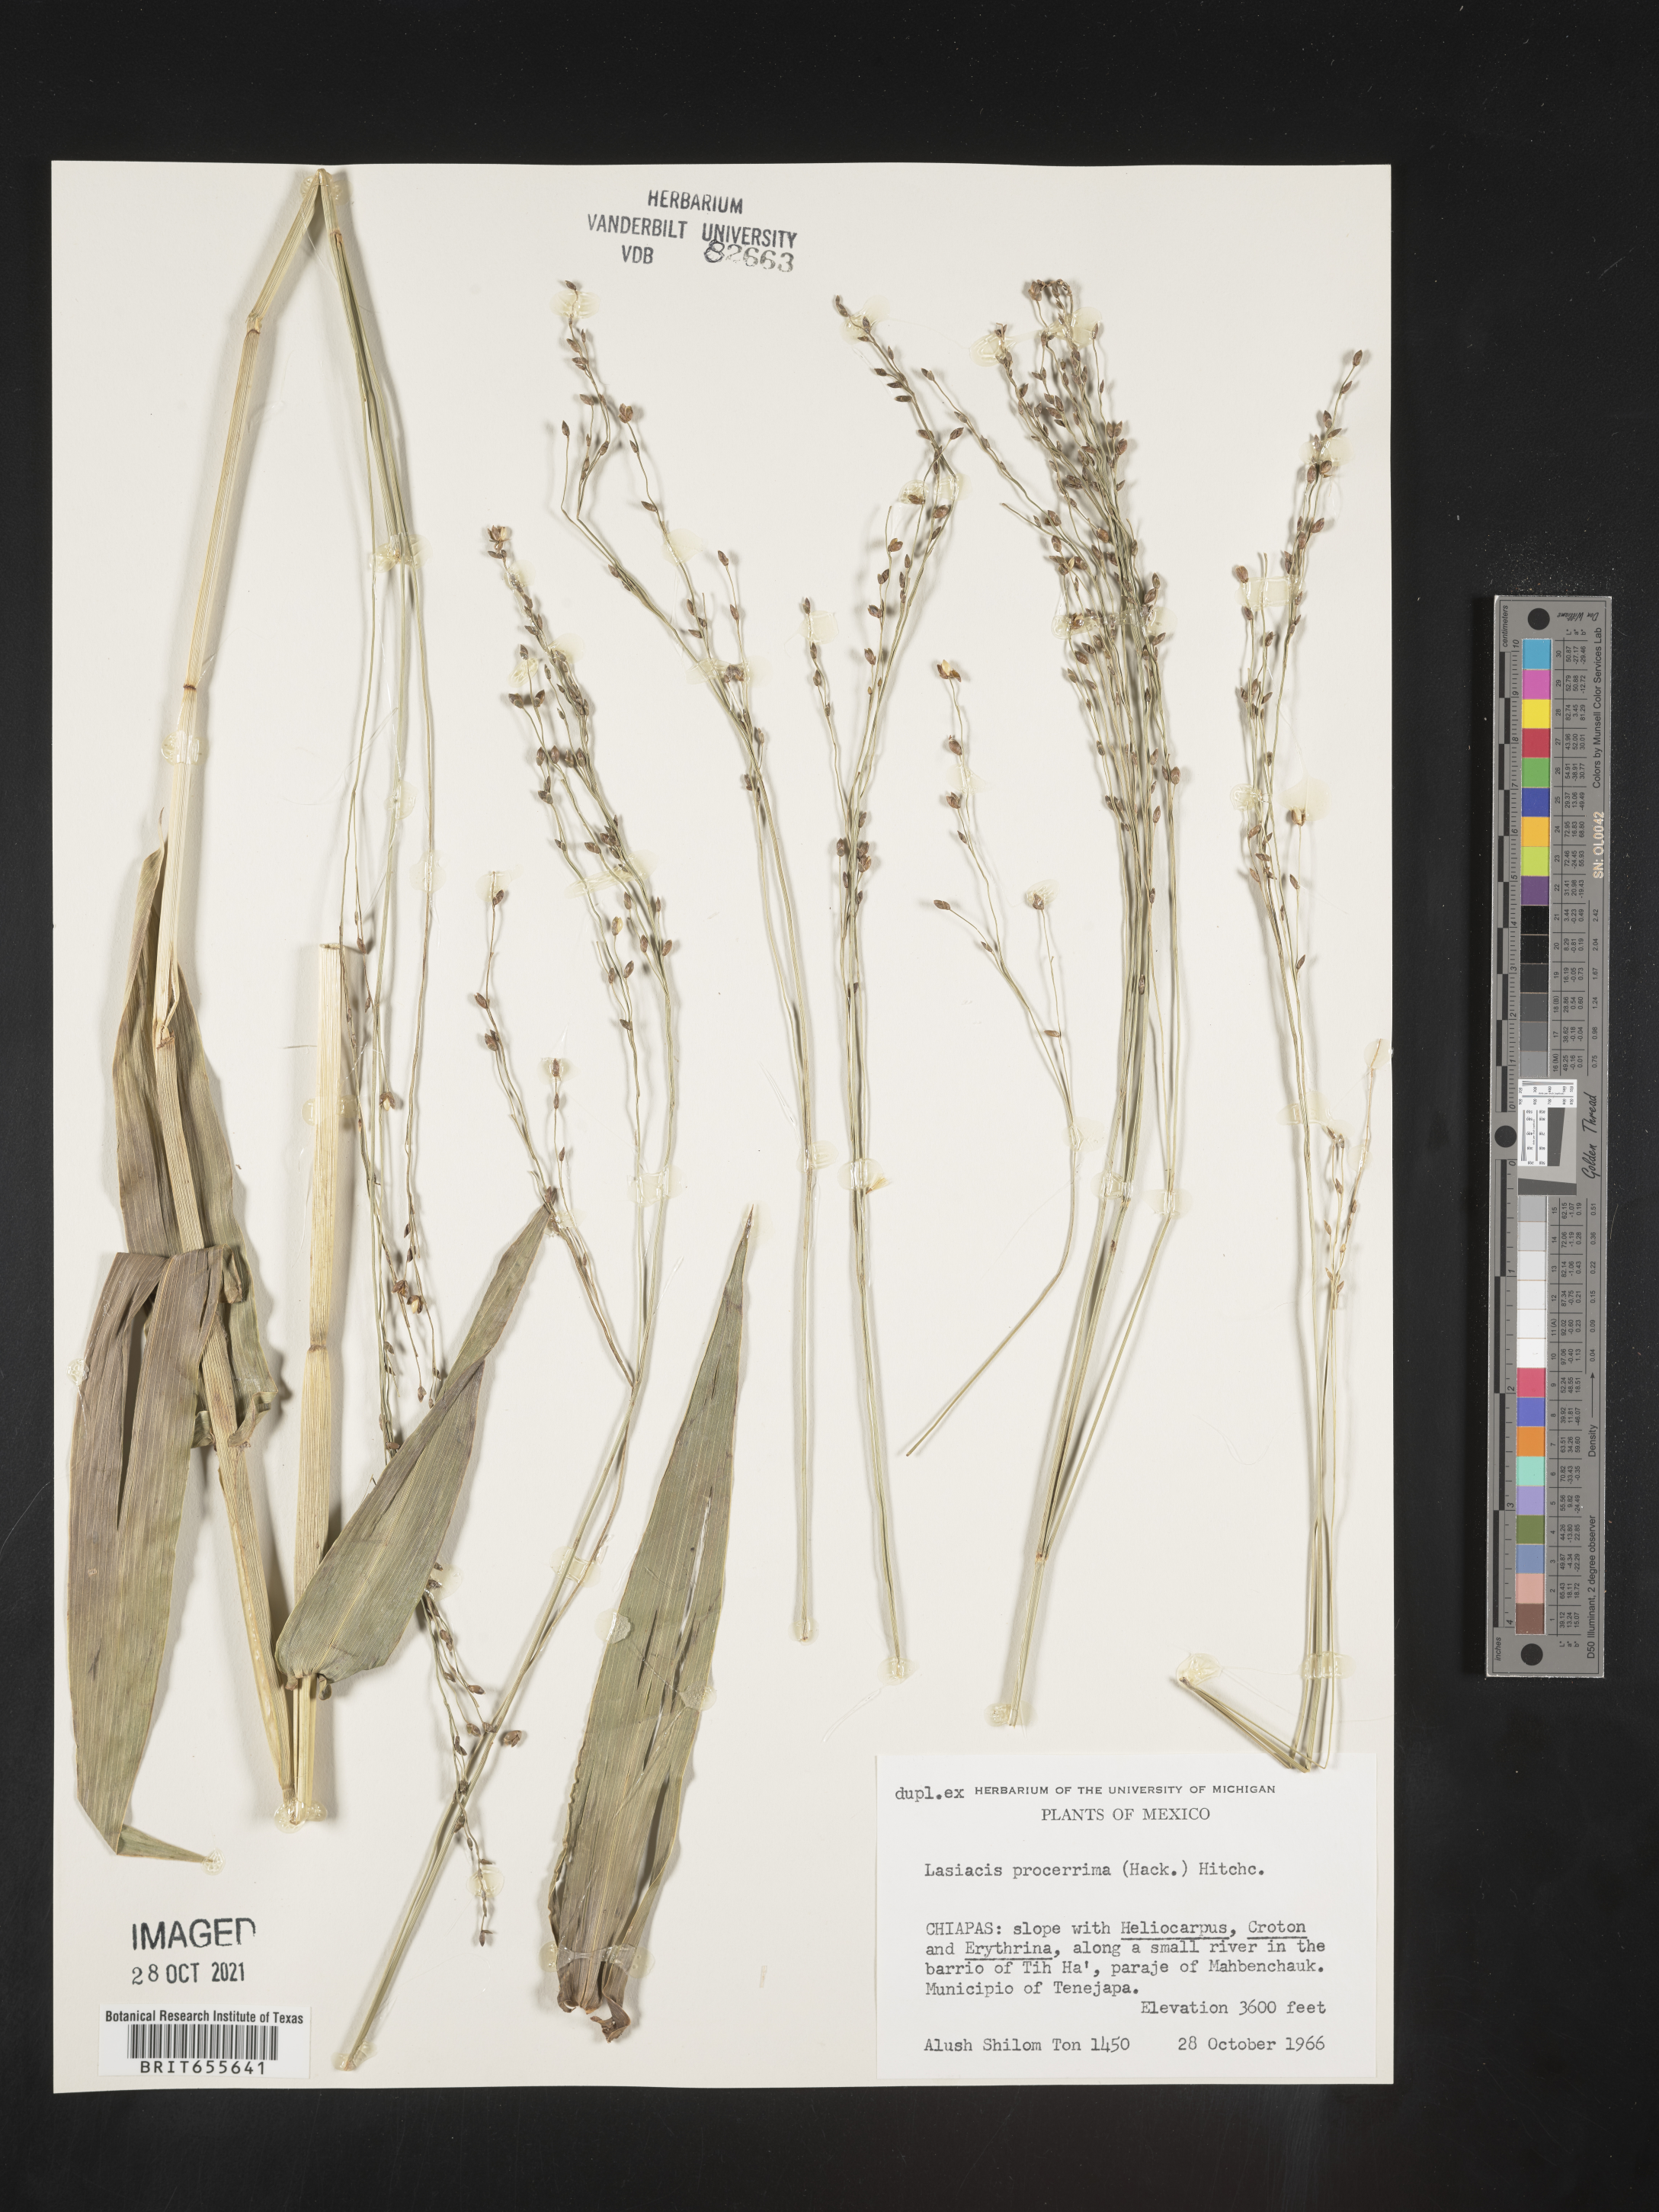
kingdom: Plantae
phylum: Tracheophyta
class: Liliopsida
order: Poales
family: Poaceae
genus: Lasiacis
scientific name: Lasiacis
